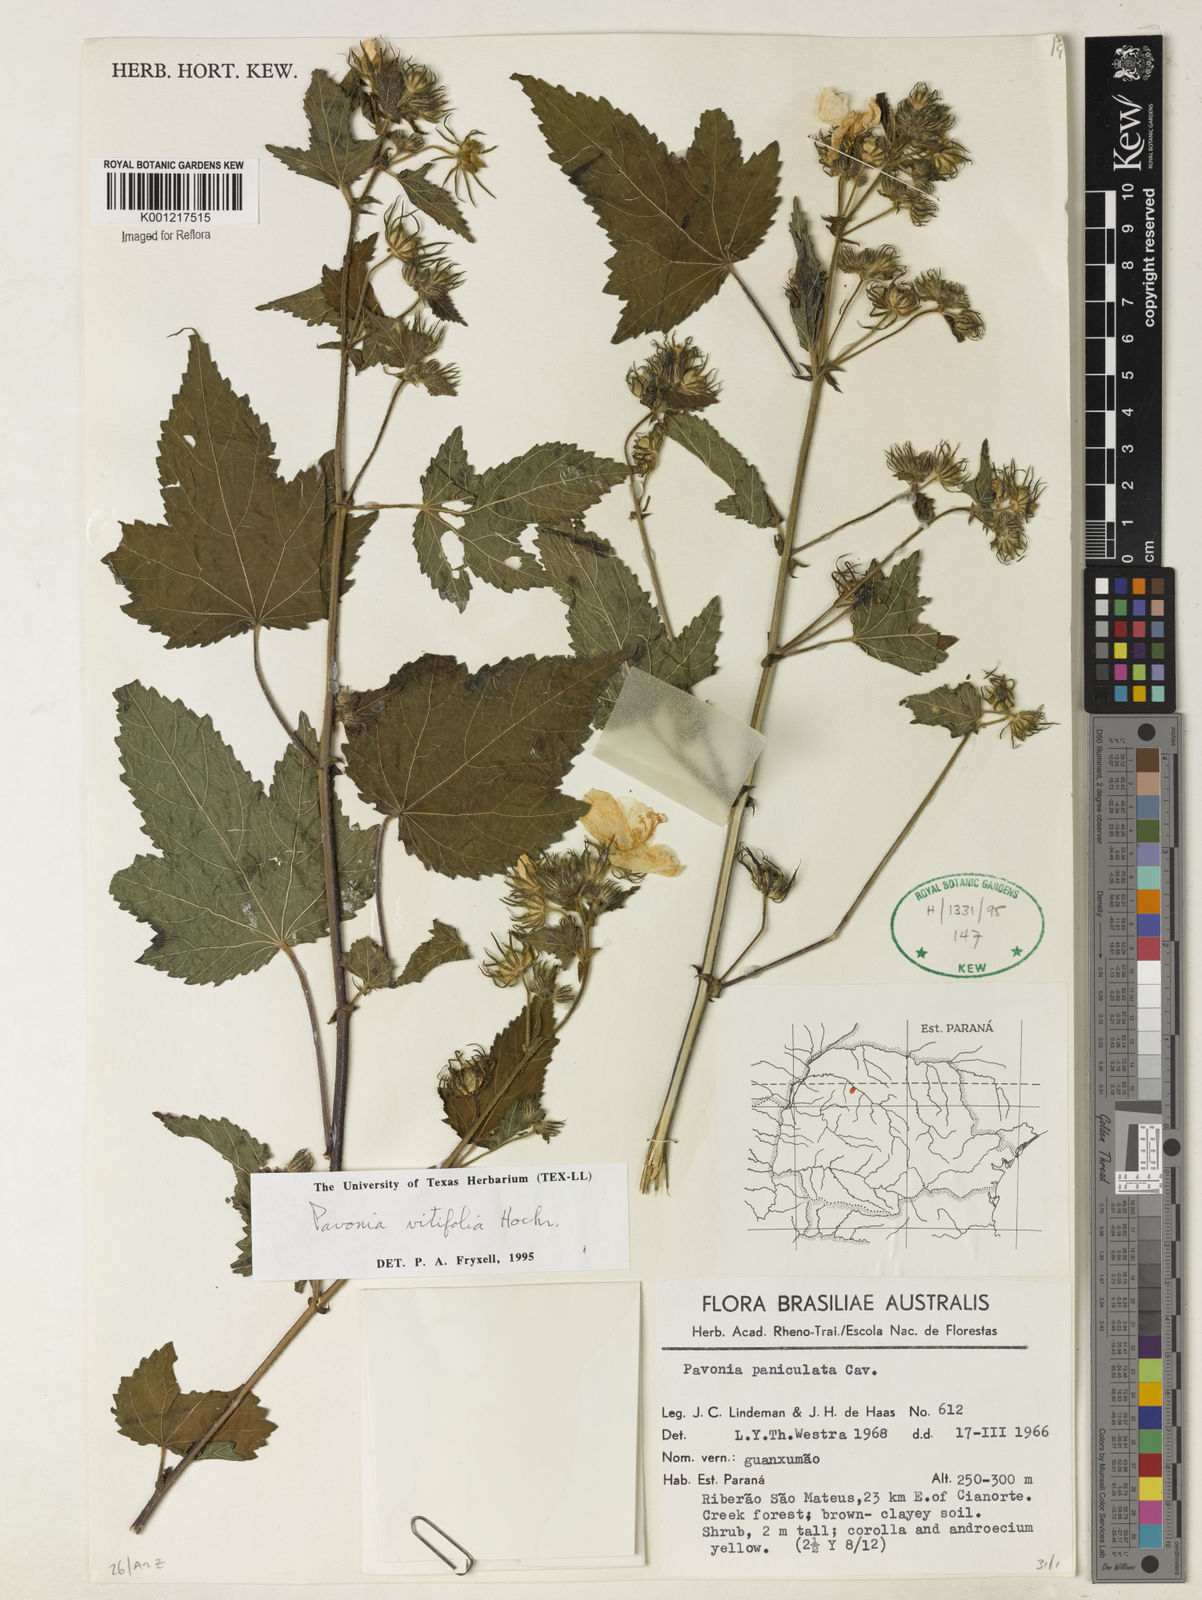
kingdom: Plantae
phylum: Tracheophyta
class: Magnoliopsida
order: Malvales
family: Malvaceae
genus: Pavonia
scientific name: Pavonia vitifolia
